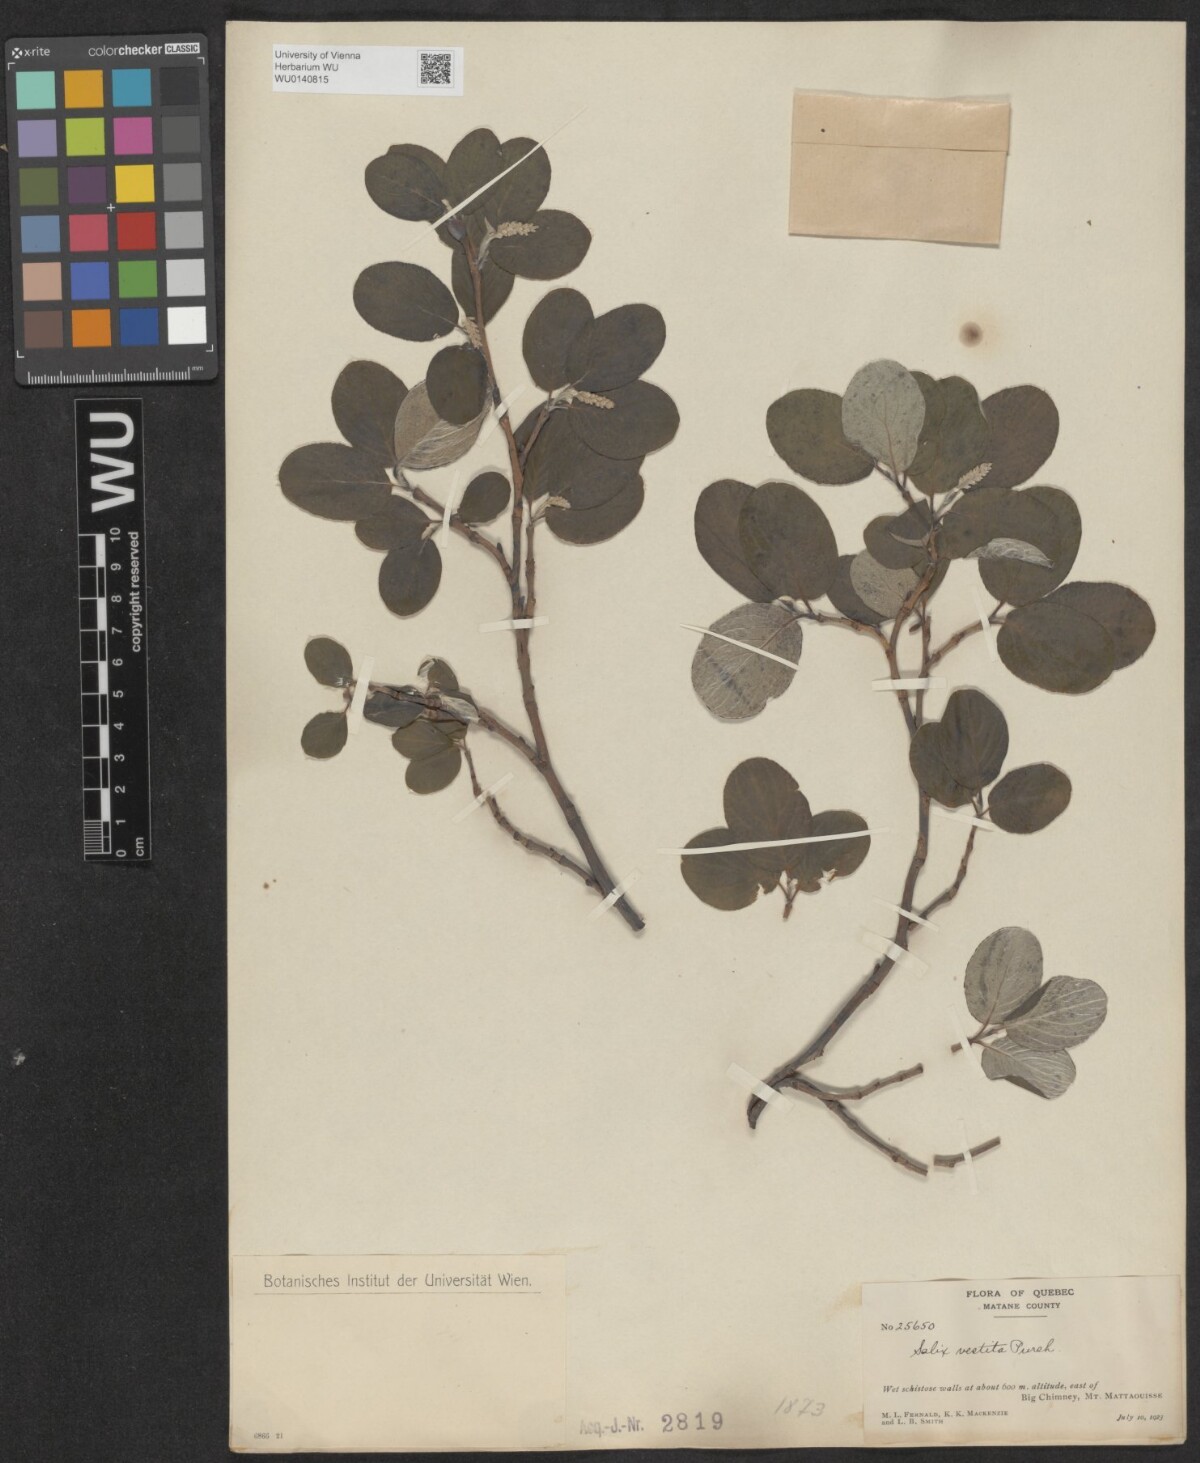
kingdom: Plantae
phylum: Tracheophyta
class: Magnoliopsida
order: Malpighiales
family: Salicaceae
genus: Salix
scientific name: Salix vestita
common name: Hairy willow
